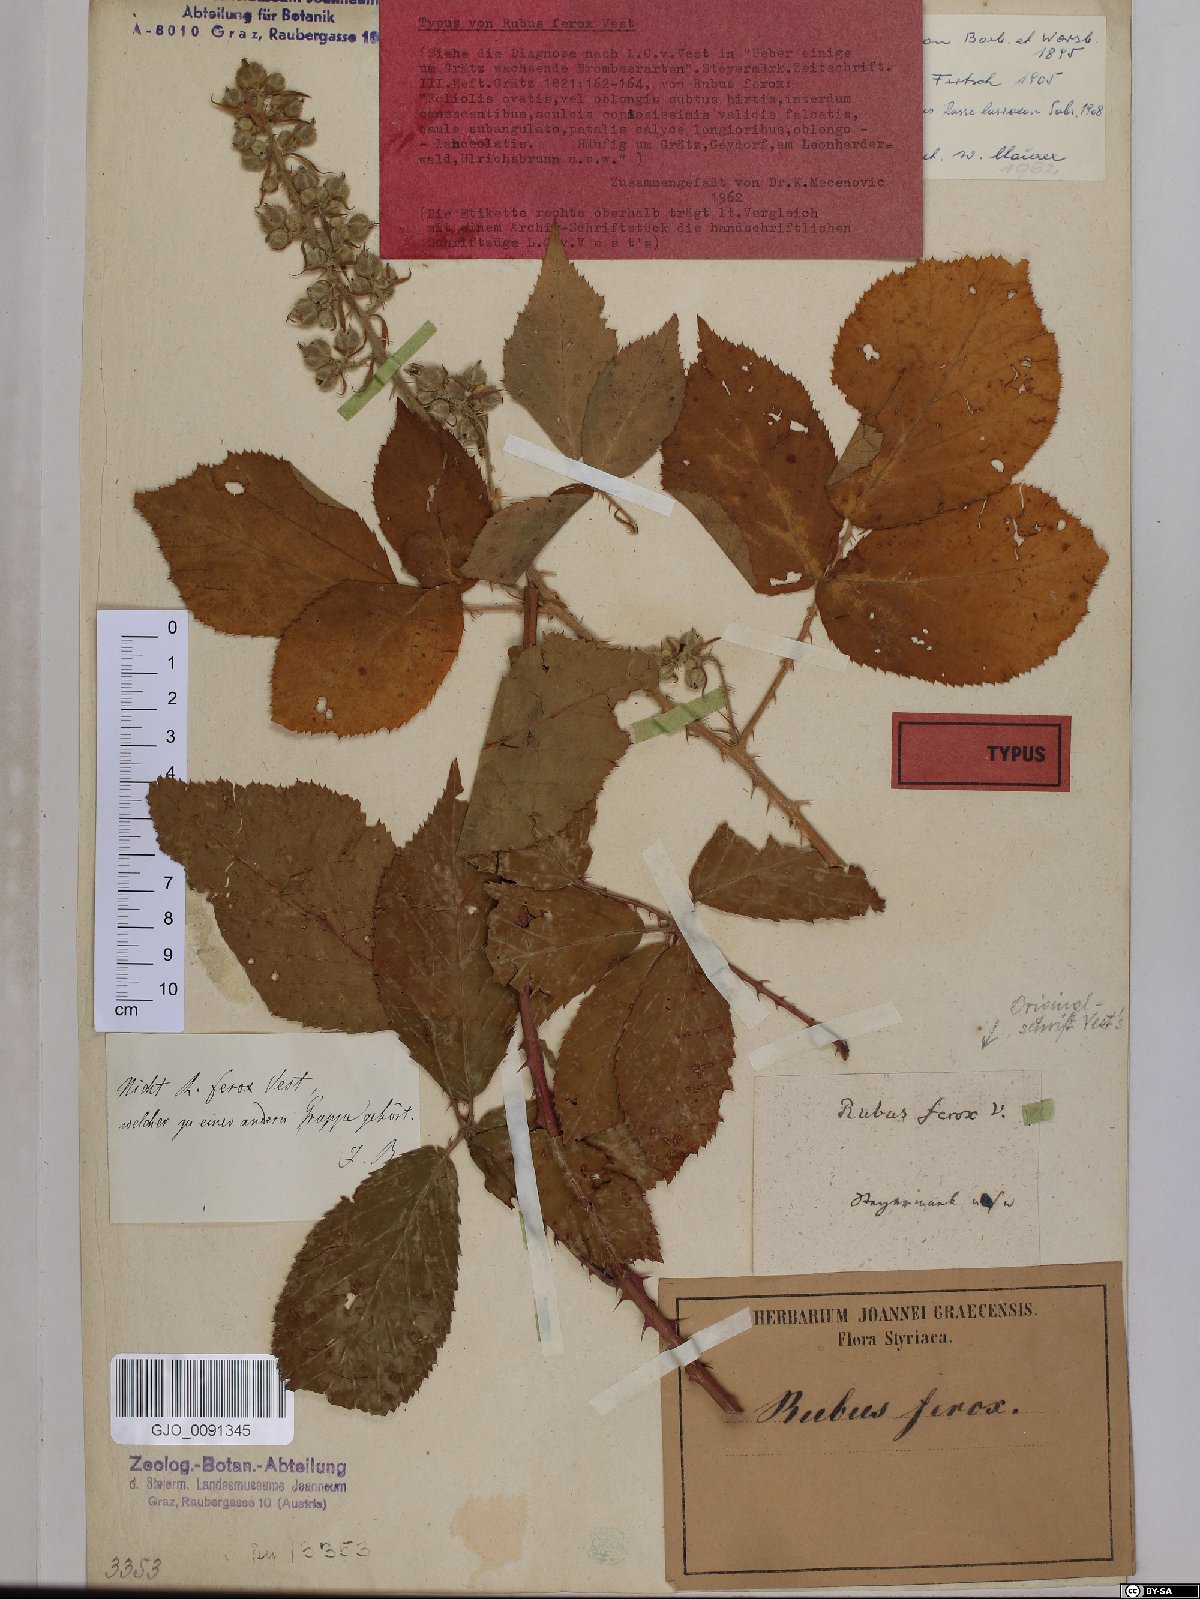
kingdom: Plantae
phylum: Tracheophyta
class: Magnoliopsida
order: Rosales
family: Rosaceae
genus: Rubus
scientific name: Rubus ferox
